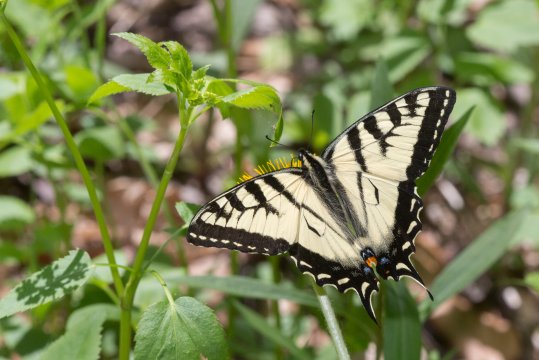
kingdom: Animalia
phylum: Arthropoda
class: Insecta
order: Lepidoptera
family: Papilionidae
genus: Pterourus
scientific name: Pterourus canadensis
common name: Canadian Tiger Swallowtail
